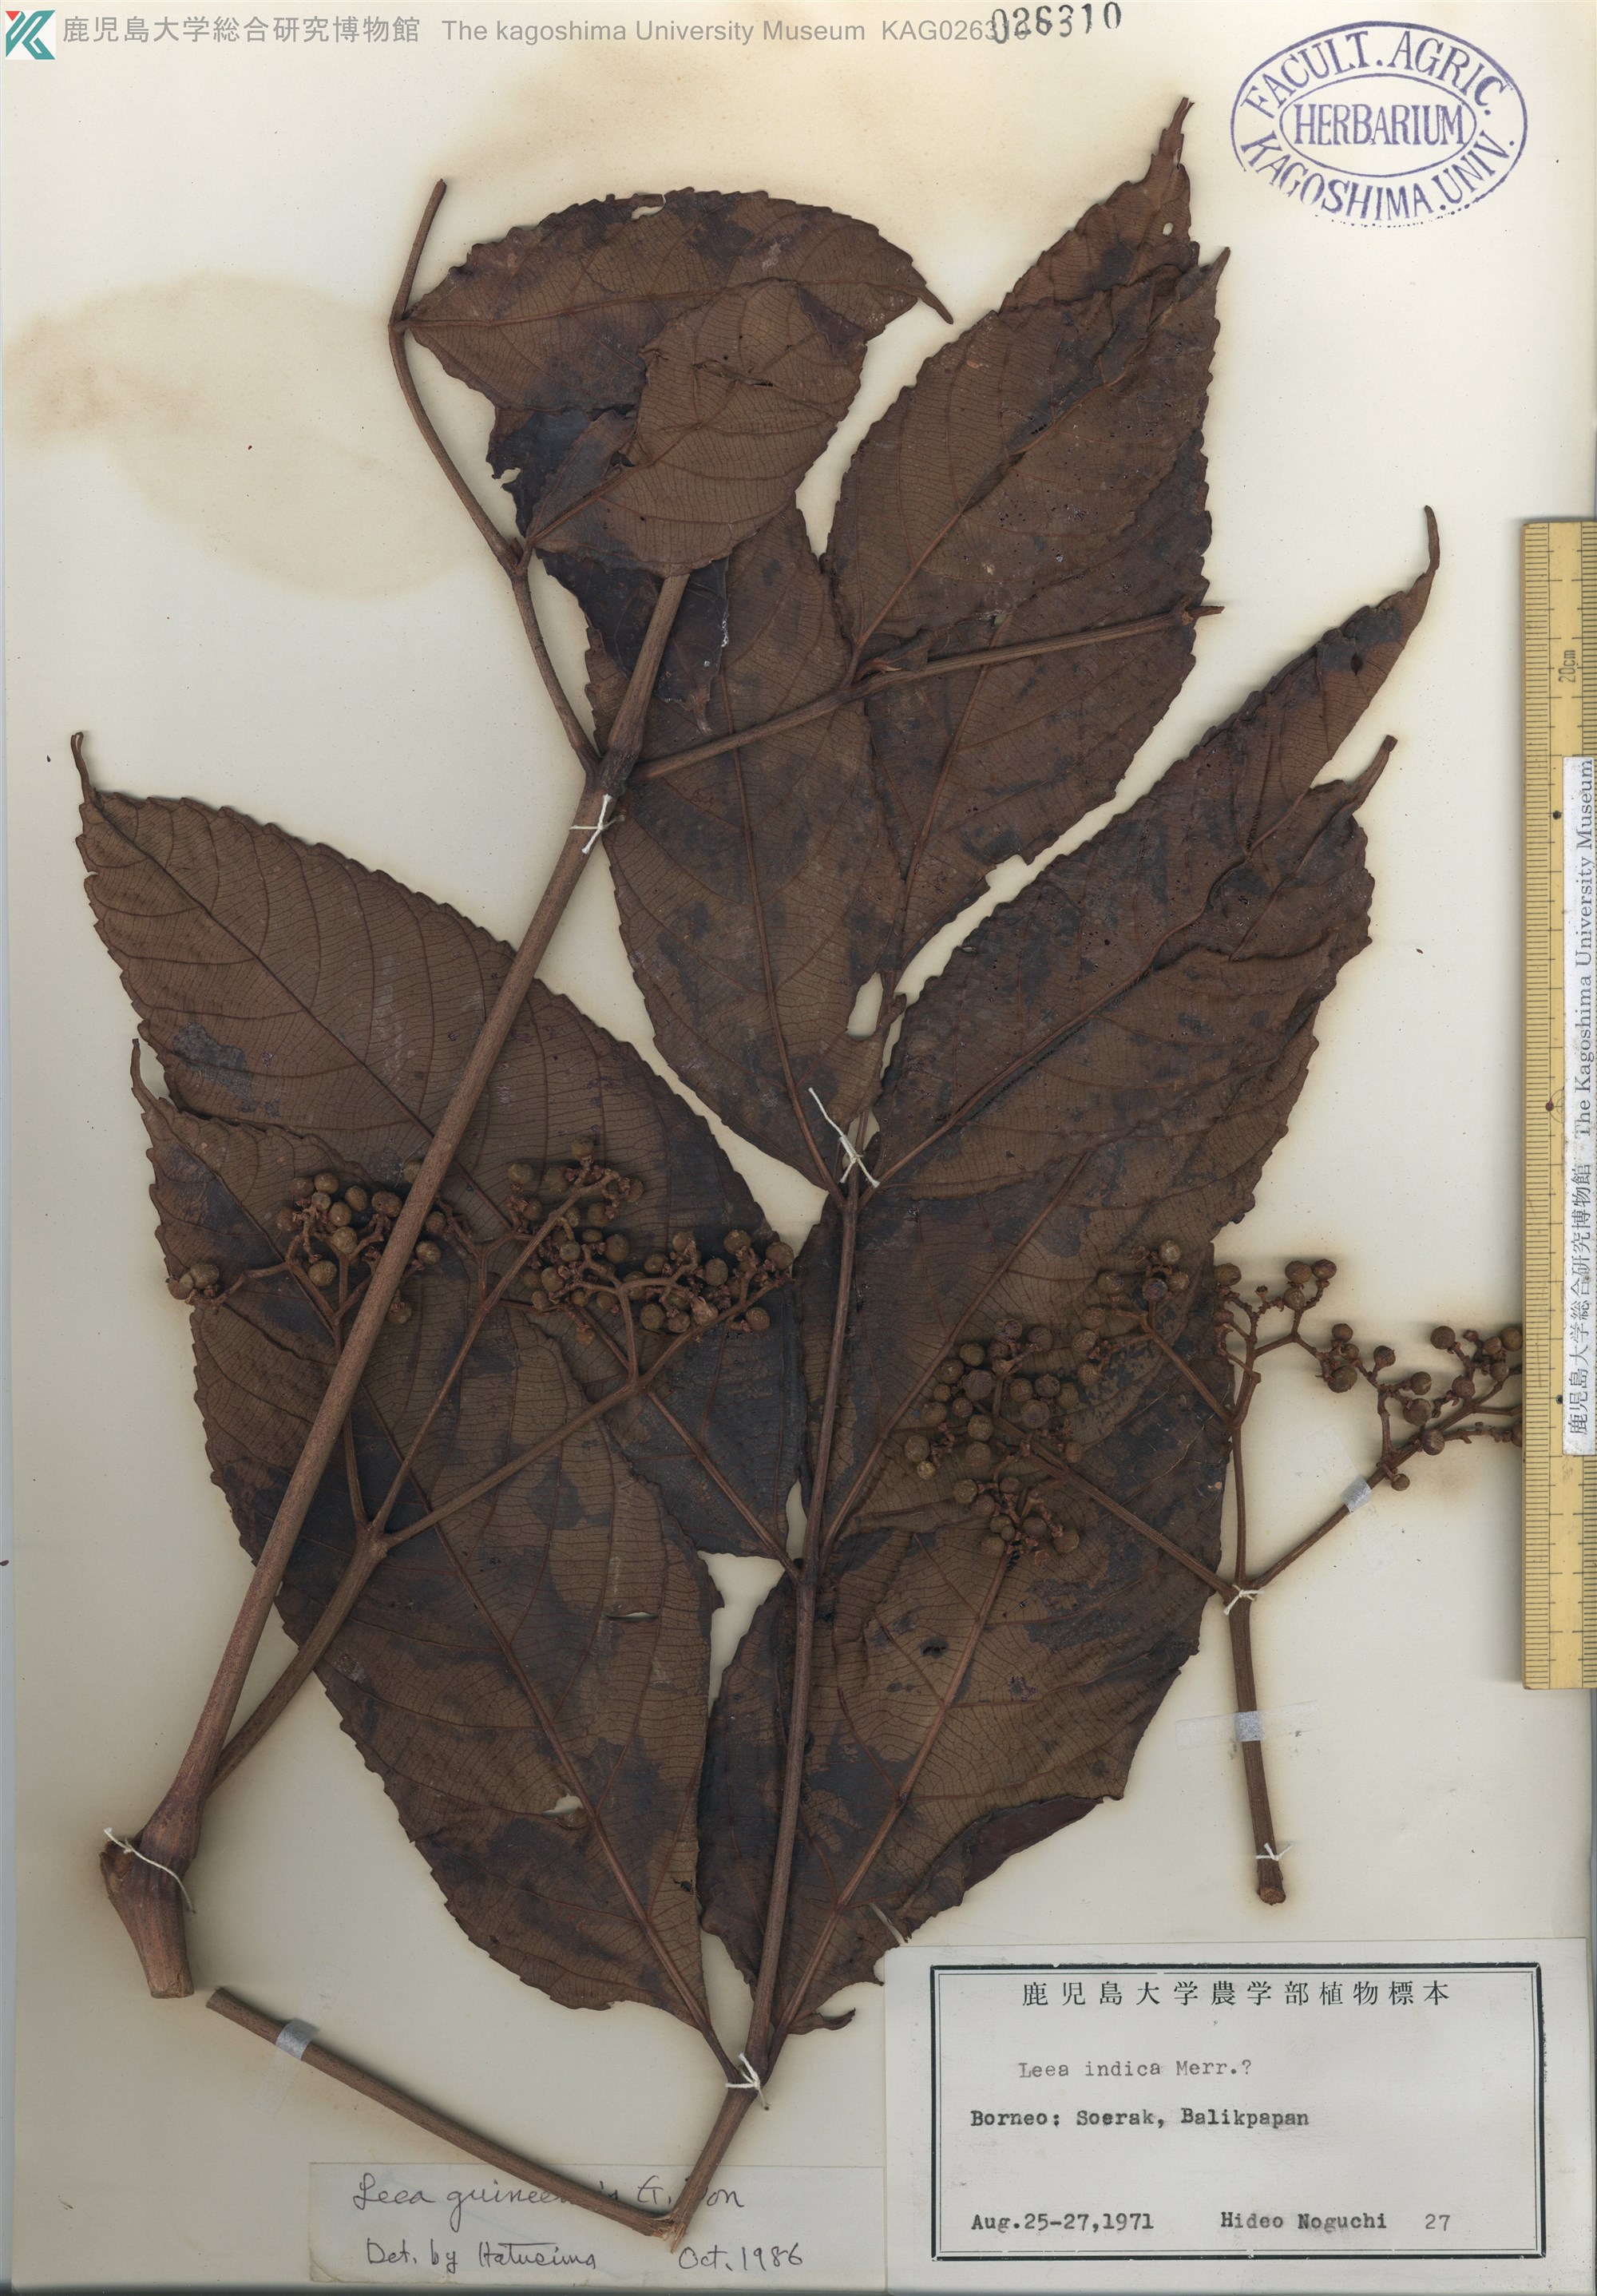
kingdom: Plantae
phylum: Tracheophyta
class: Magnoliopsida
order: Vitales
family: Vitaceae
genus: Leea
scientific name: Leea guineensis
